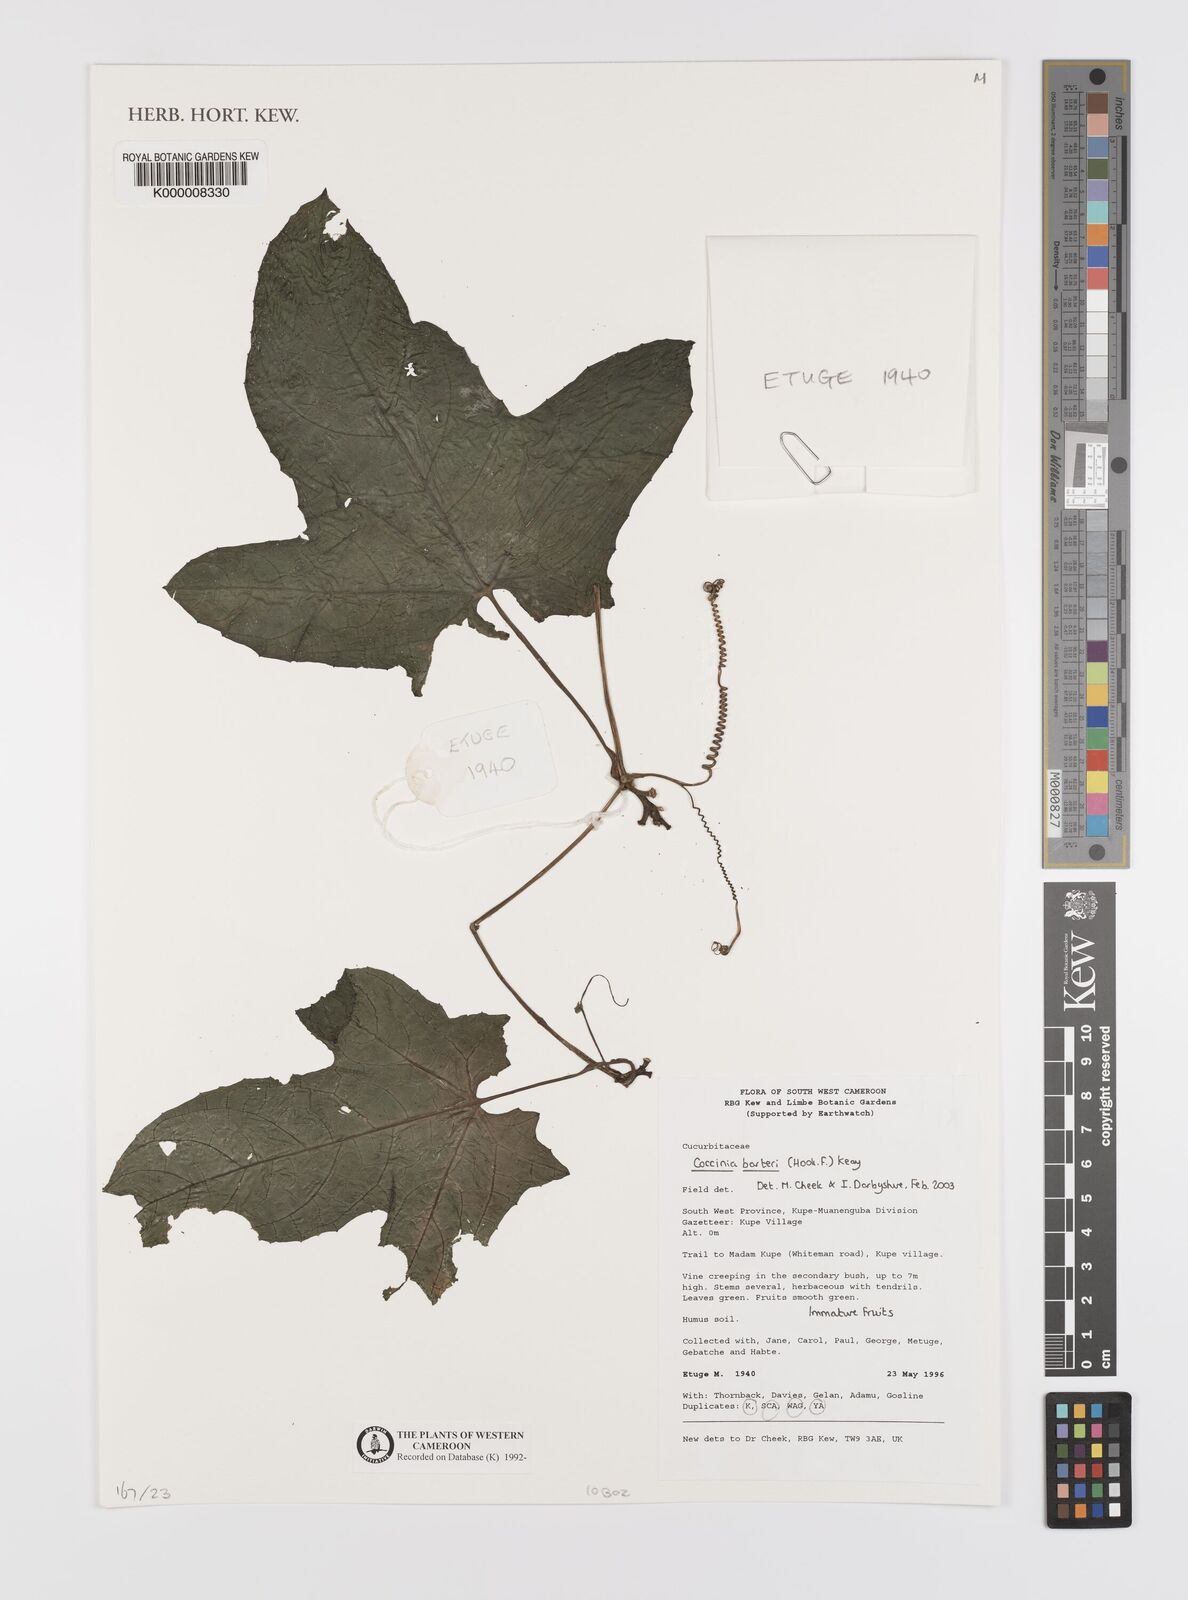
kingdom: Plantae
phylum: Tracheophyta
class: Magnoliopsida
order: Cucurbitales
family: Cucurbitaceae
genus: Coccinia
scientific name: Coccinia barteri
